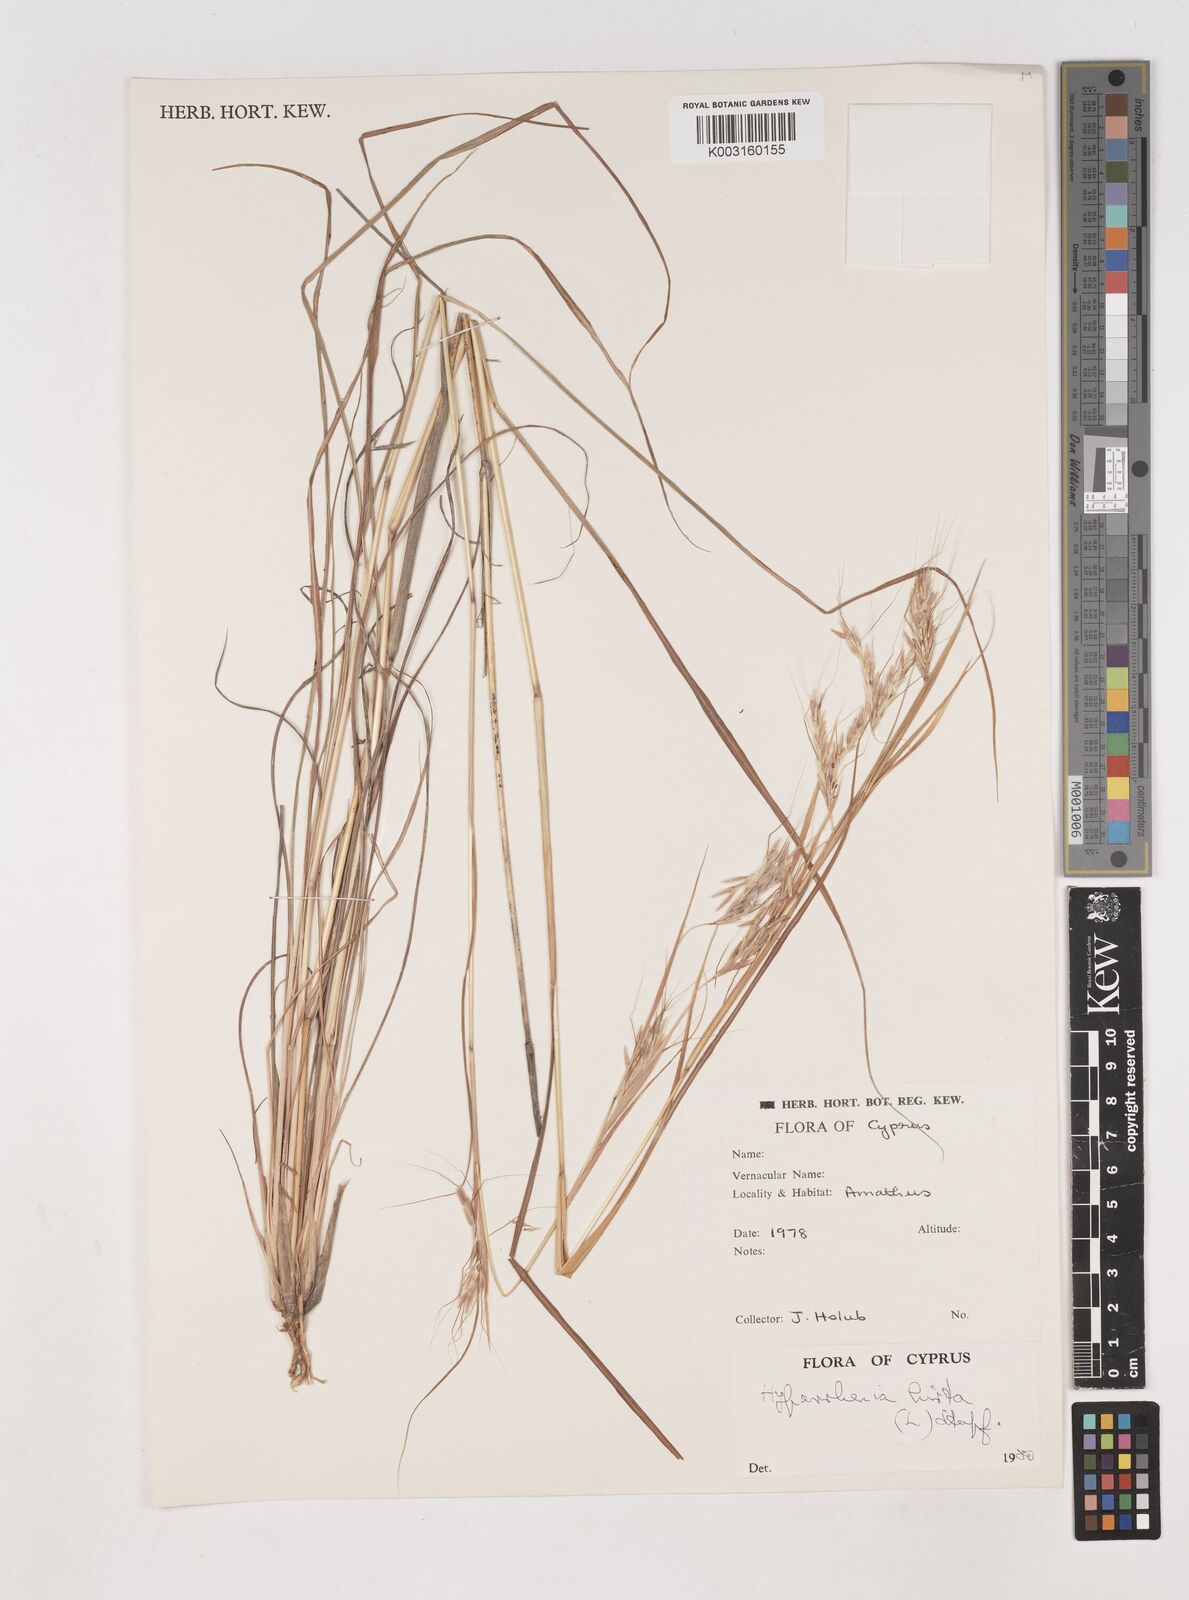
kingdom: Plantae
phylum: Tracheophyta
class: Liliopsida
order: Poales
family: Poaceae
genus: Hyparrhenia
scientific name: Hyparrhenia hirta
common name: Thatching grass
